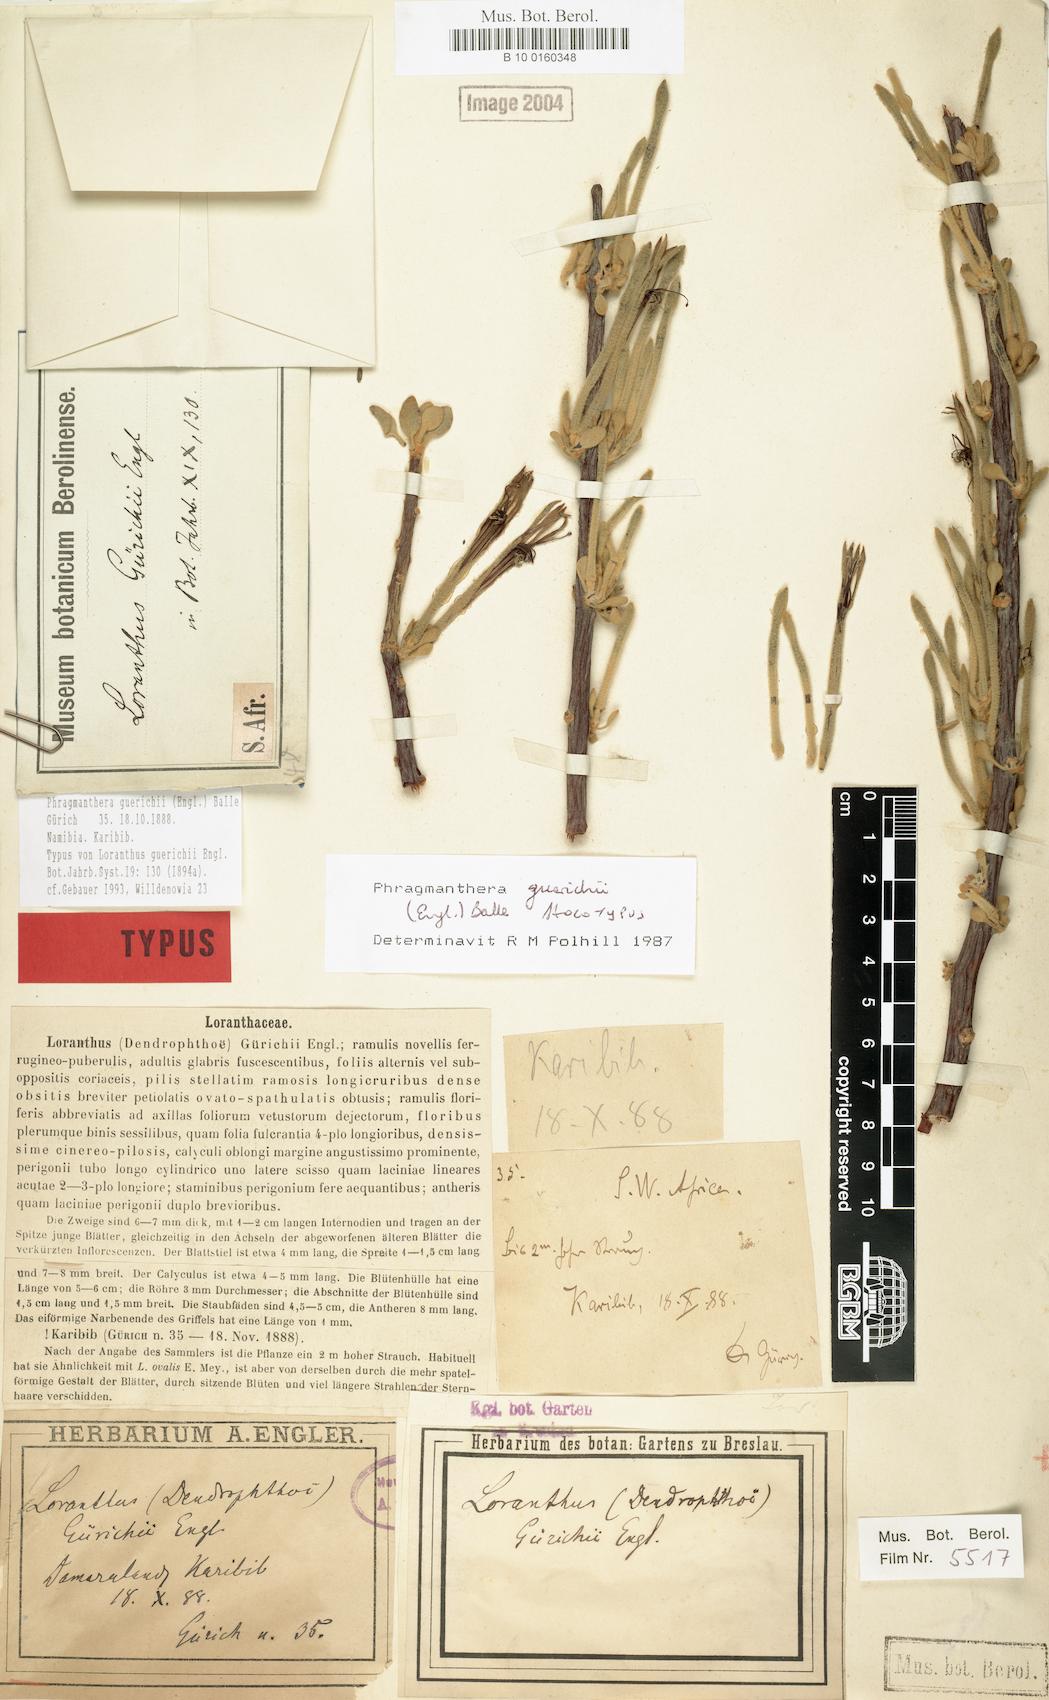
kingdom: Plantae
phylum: Tracheophyta
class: Magnoliopsida
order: Santalales
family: Loranthaceae
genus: Phragmanthera
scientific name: Phragmanthera guerichii
